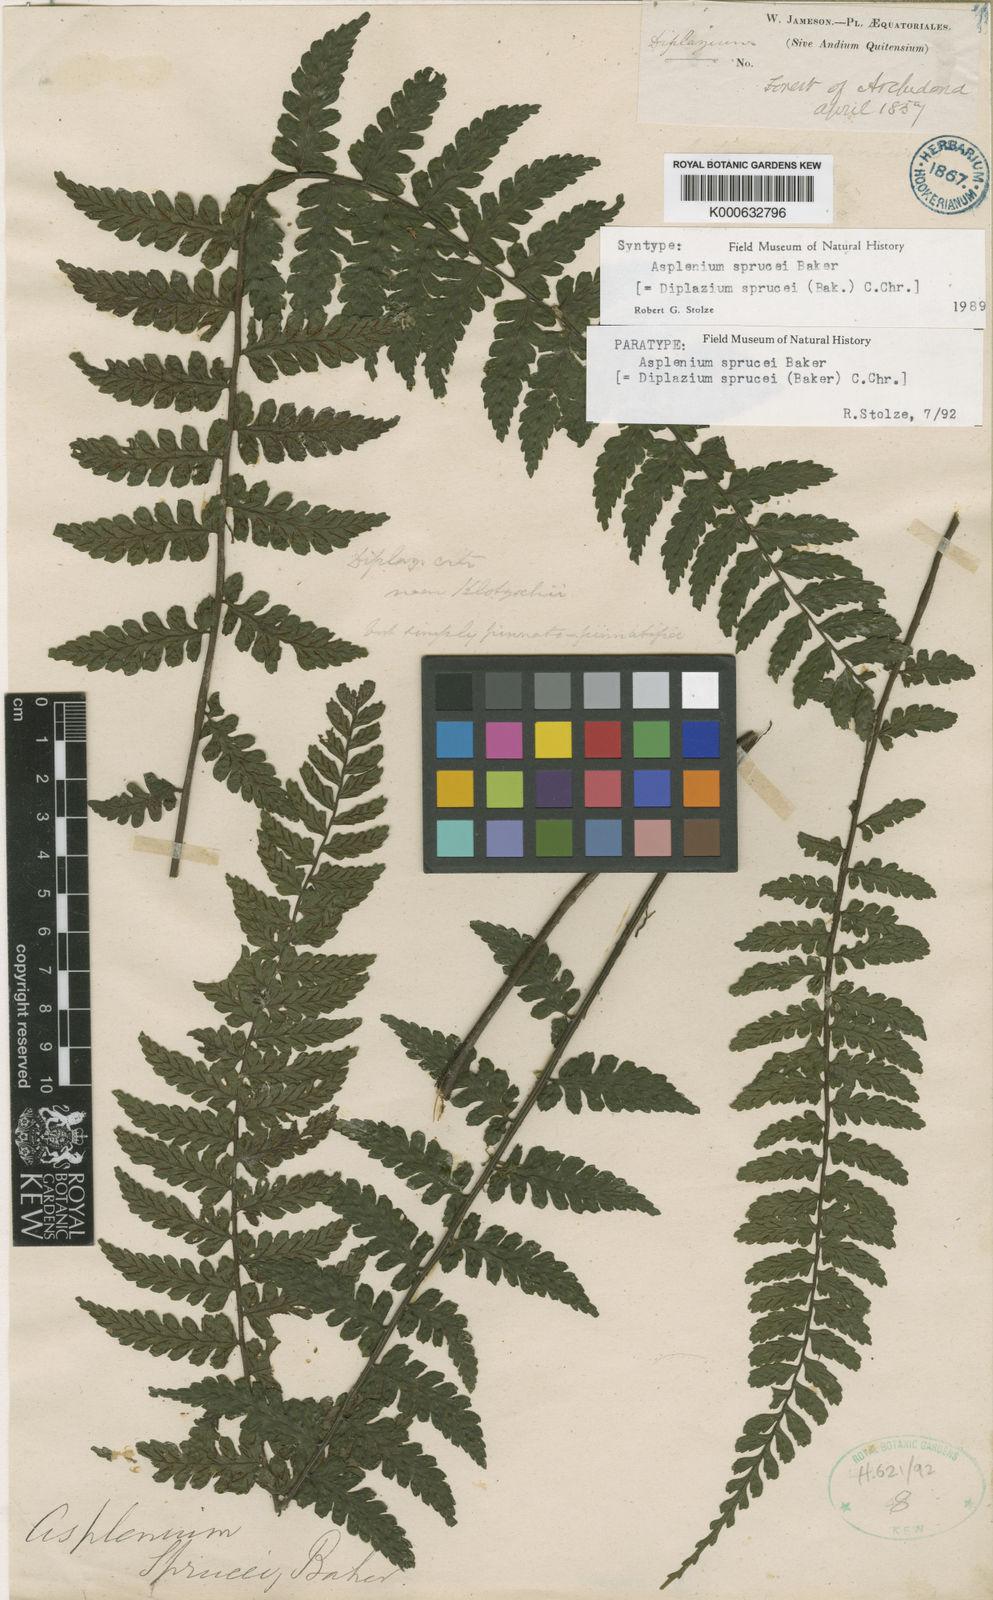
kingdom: Plantae
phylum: Tracheophyta
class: Polypodiopsida
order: Polypodiales
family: Athyriaceae
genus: Diplazium
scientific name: Diplazium sprucei
